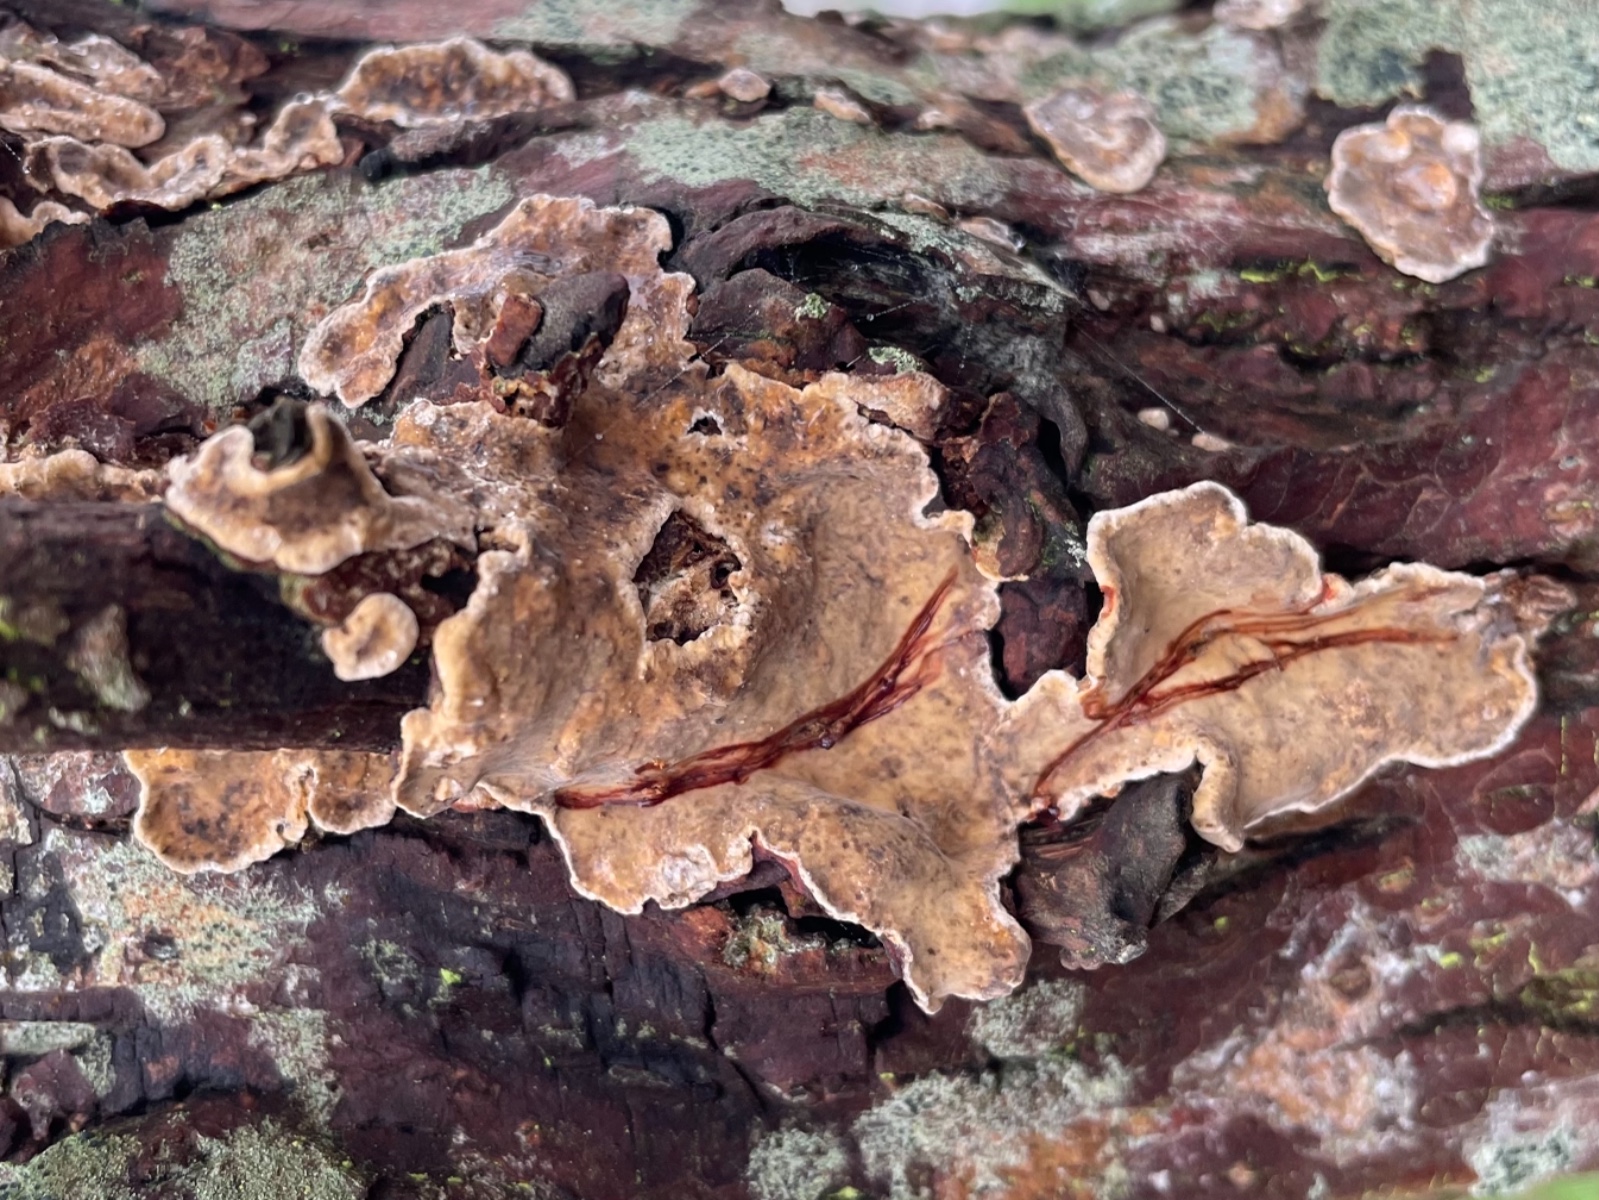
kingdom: Fungi
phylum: Basidiomycota
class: Agaricomycetes
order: Russulales
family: Stereaceae
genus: Stereum
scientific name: Stereum rugosum
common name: rynket lædersvamp
